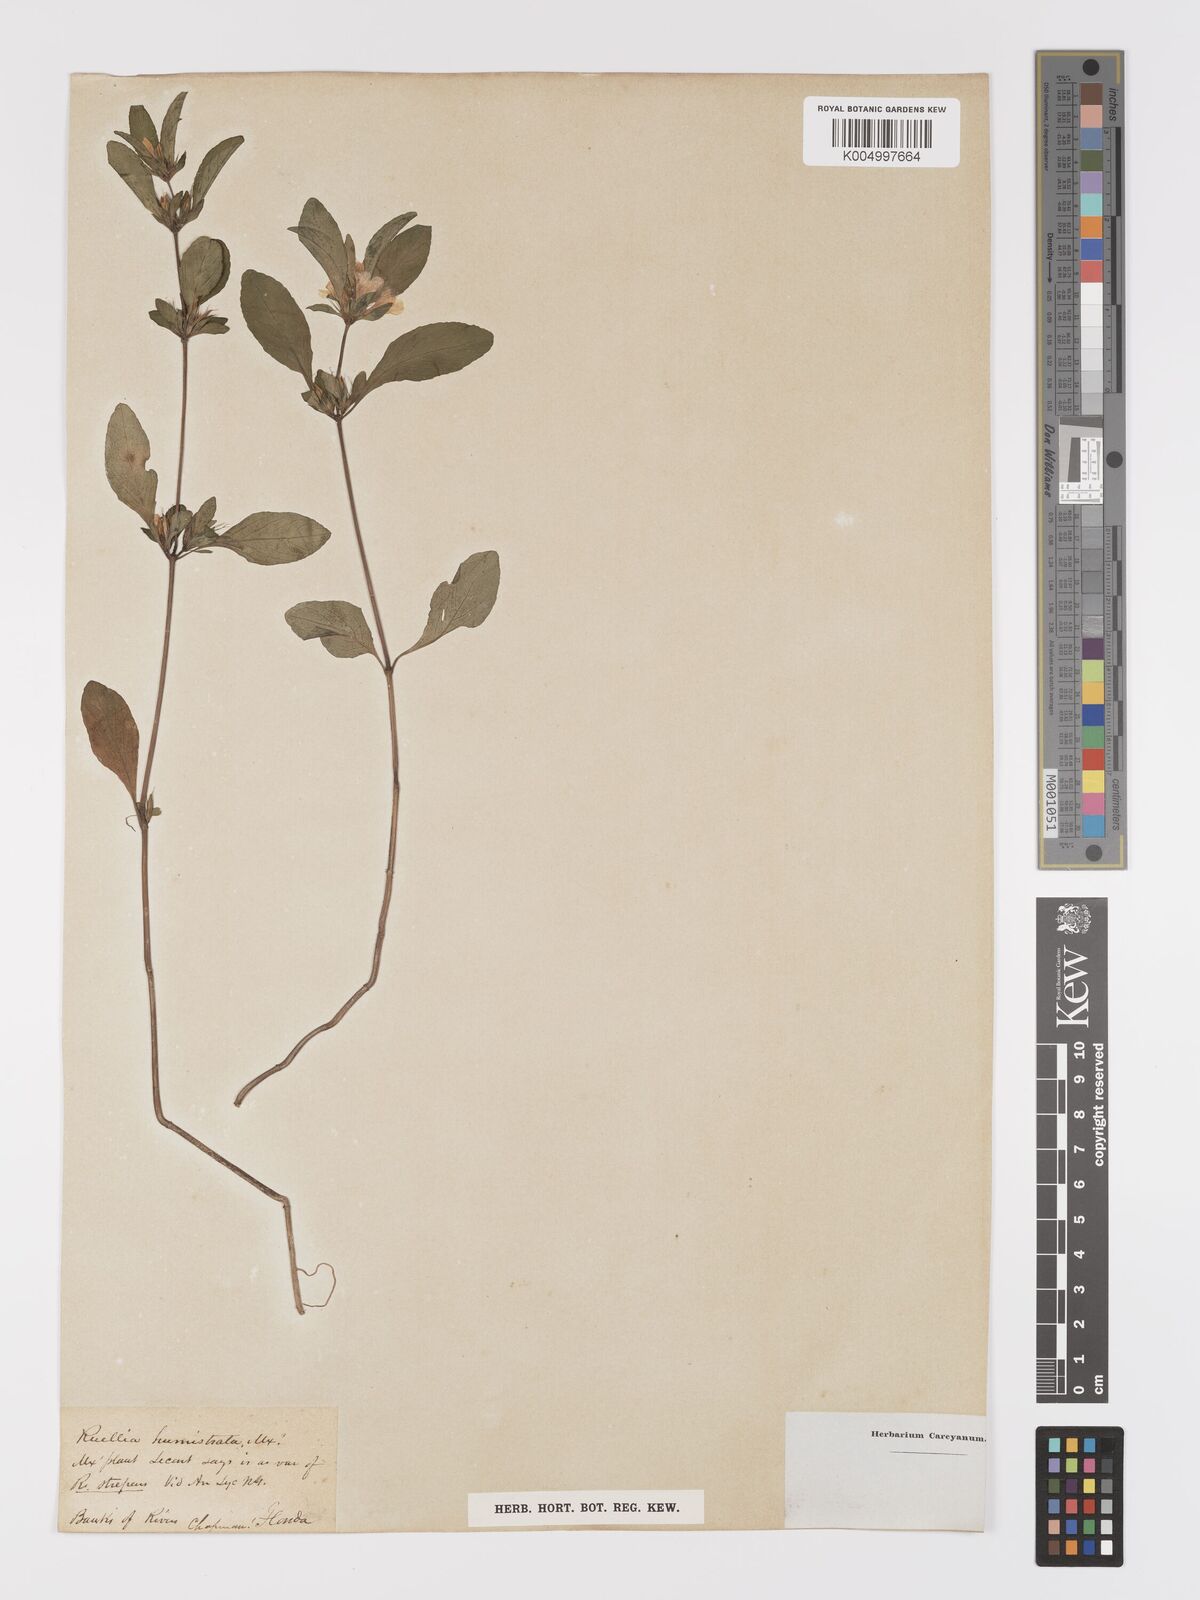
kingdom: Plantae
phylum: Tracheophyta
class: Magnoliopsida
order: Lamiales
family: Acanthaceae
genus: Ruellia
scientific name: Ruellia strepens
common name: Limestone wild petunia
